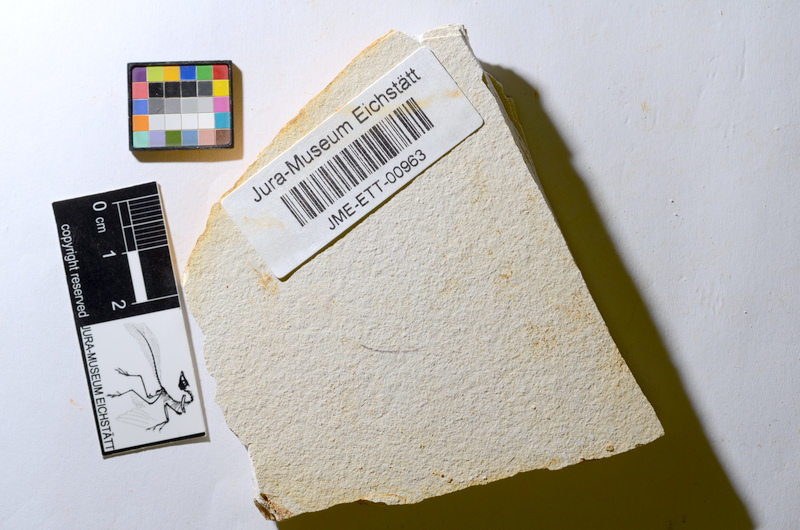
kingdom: Animalia
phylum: Chordata
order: Salmoniformes
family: Orthogonikleithridae
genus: Orthogonikleithrus
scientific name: Orthogonikleithrus hoelli
